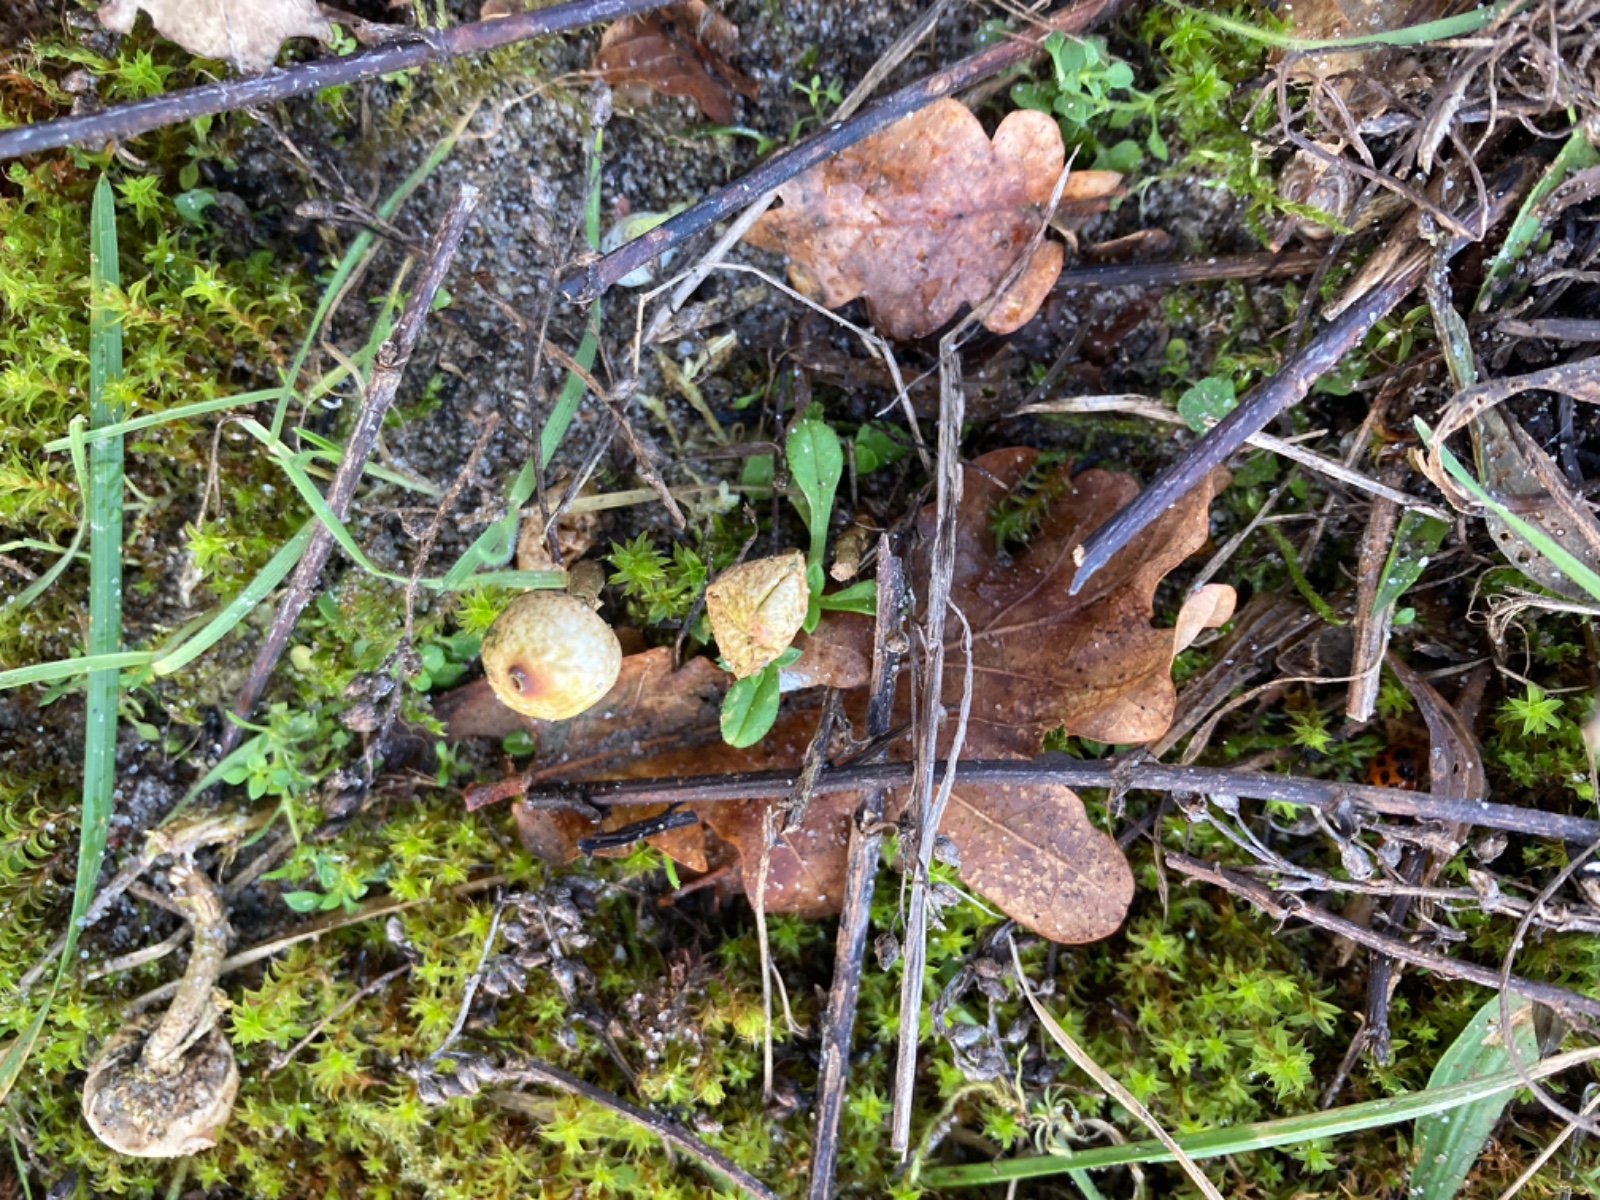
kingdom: Fungi
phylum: Basidiomycota
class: Agaricomycetes
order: Agaricales
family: Agaricaceae
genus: Tulostoma
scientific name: Tulostoma brumale
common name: vinter-stilkbovist
